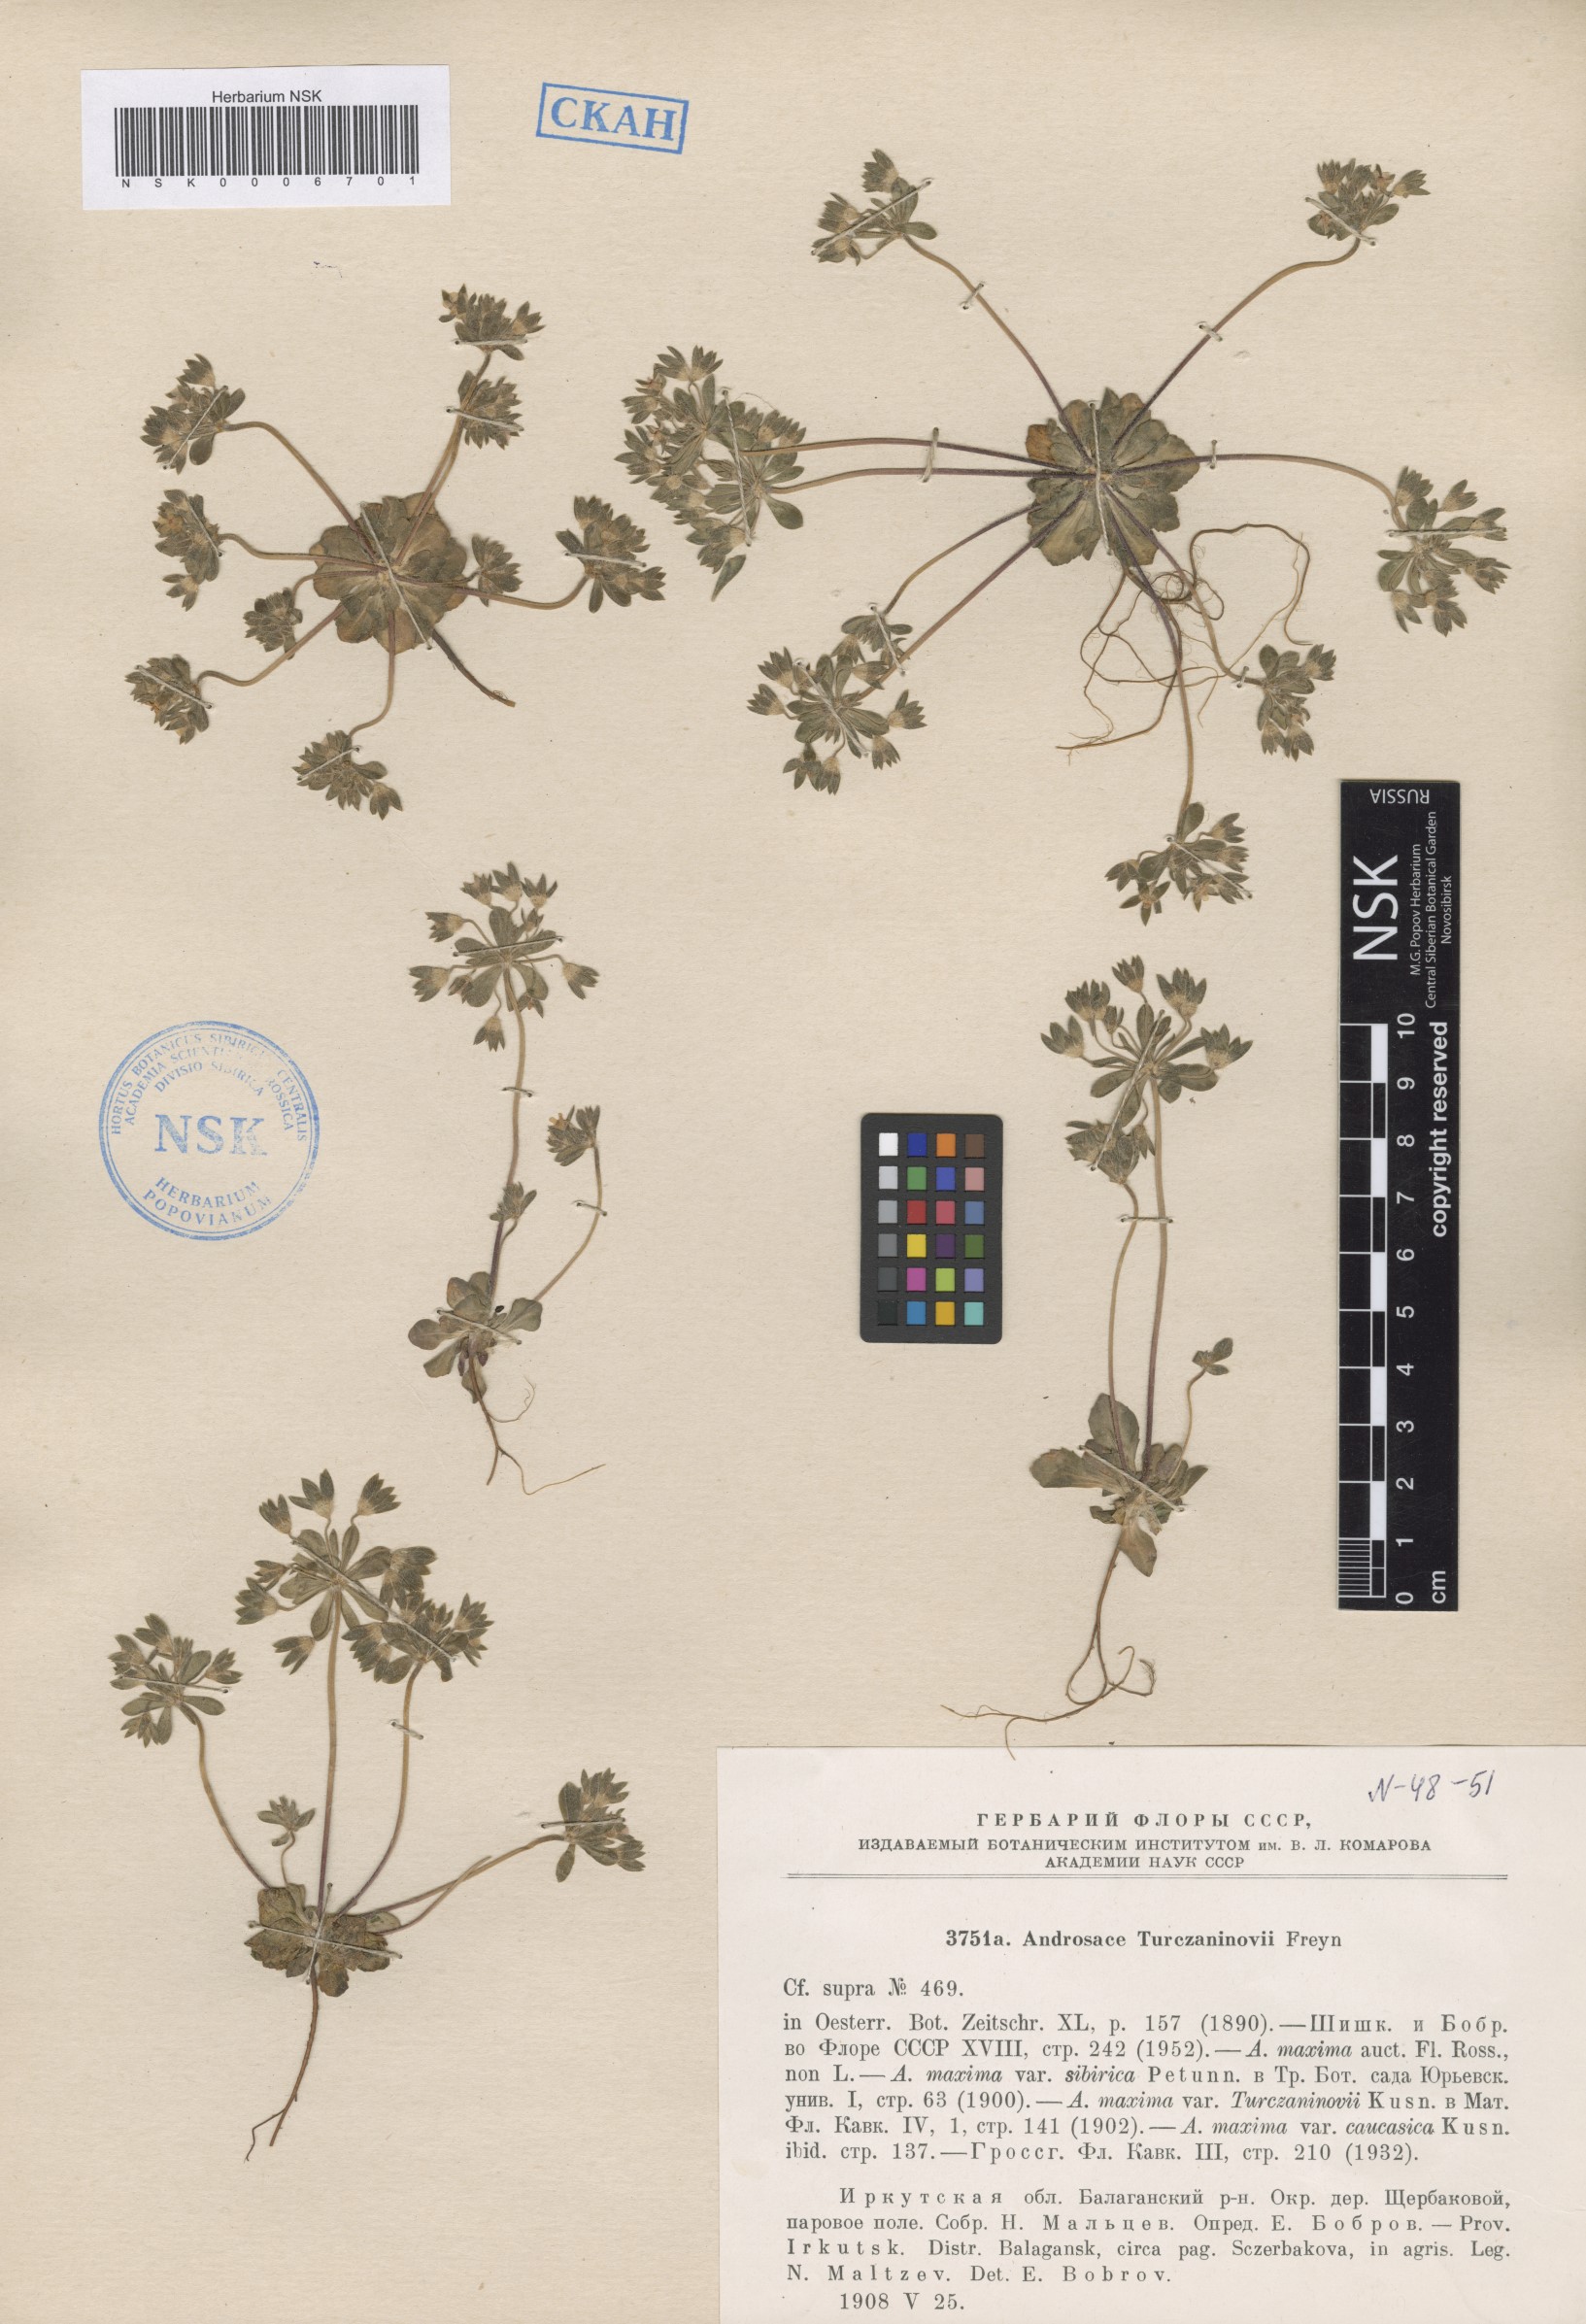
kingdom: Plantae
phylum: Tracheophyta
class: Magnoliopsida
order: Ericales
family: Primulaceae
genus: Androsace
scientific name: Androsace maxima
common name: Annual androsace
